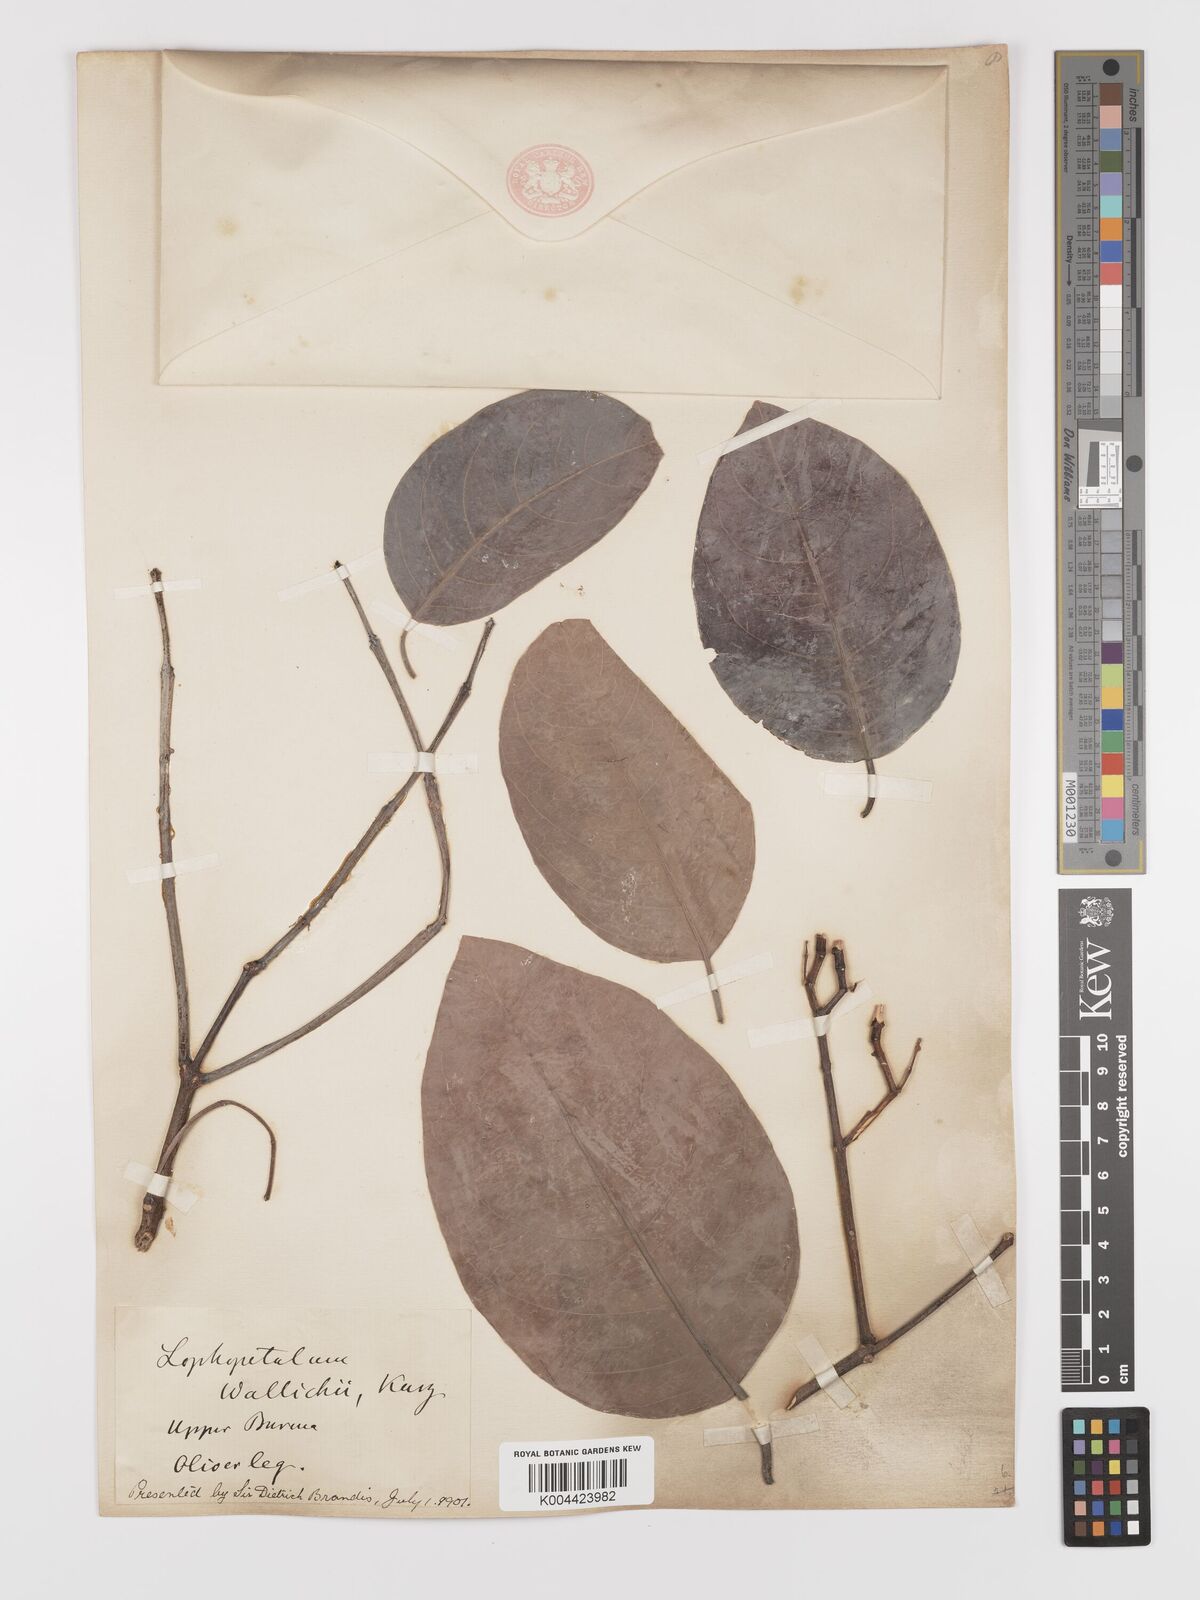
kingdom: Plantae
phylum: Tracheophyta
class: Magnoliopsida
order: Celastrales
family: Celastraceae
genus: Lophopetalum
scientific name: Lophopetalum wallichii
